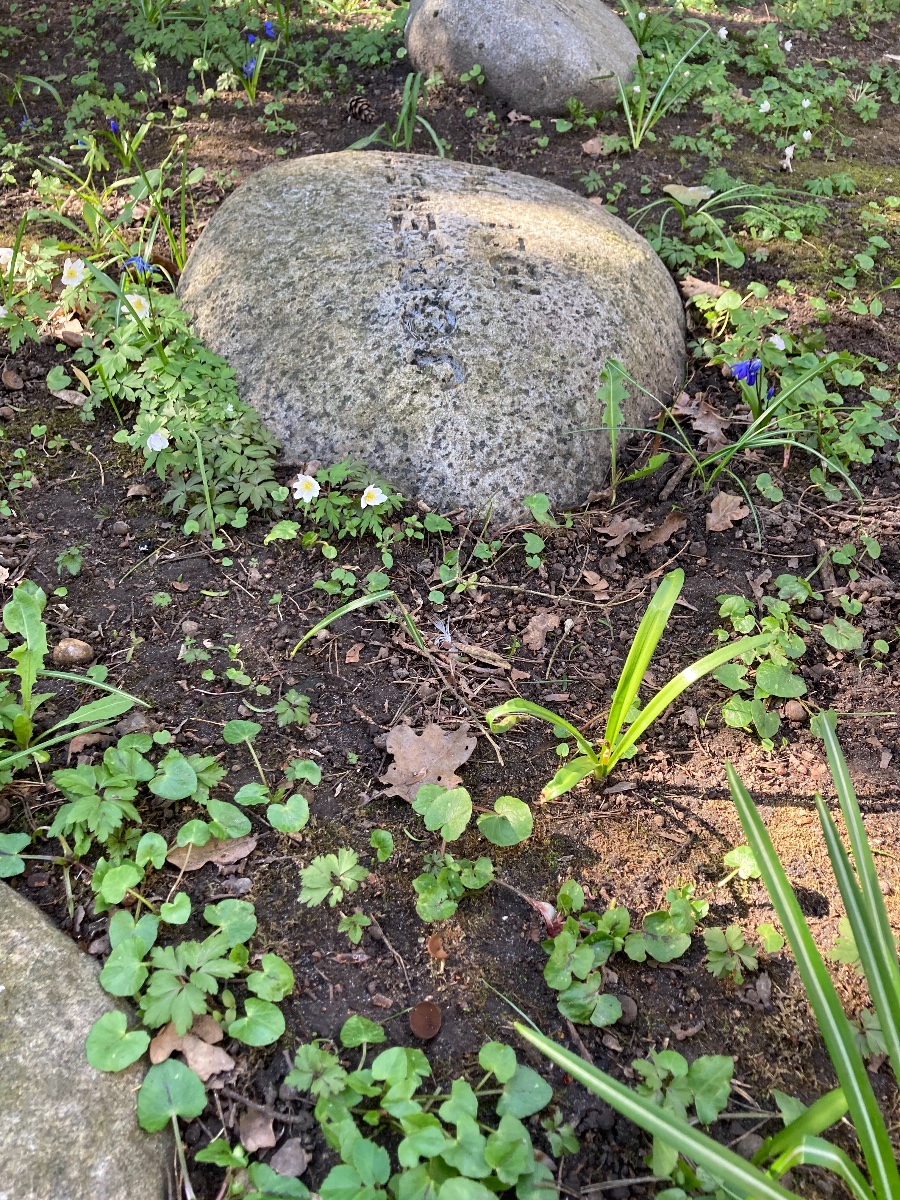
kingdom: Fungi
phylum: Ascomycota
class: Leotiomycetes
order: Helotiales
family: Sclerotiniaceae
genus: Dumontinia
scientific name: Dumontinia tuberosa
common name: anemone-knoldskive
